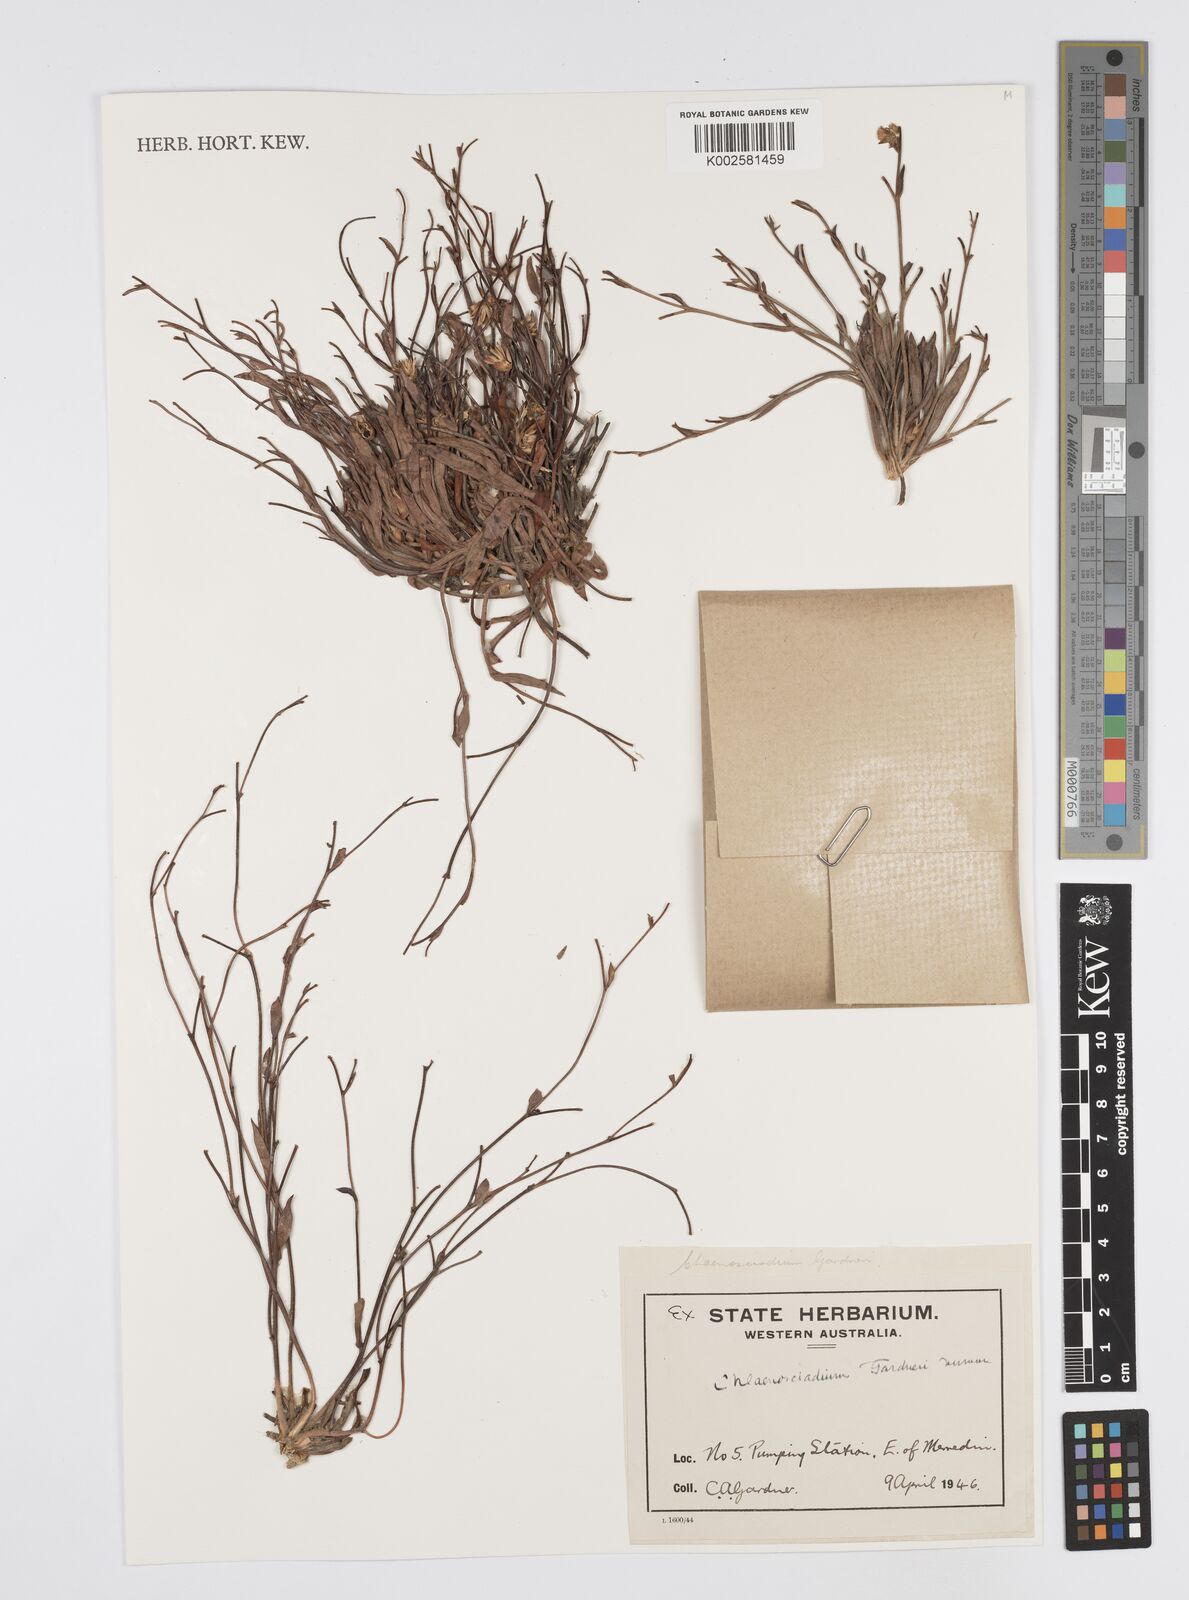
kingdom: Plantae
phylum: Tracheophyta
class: Magnoliopsida
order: Apiales
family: Apiaceae
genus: Centella
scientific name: Centella
